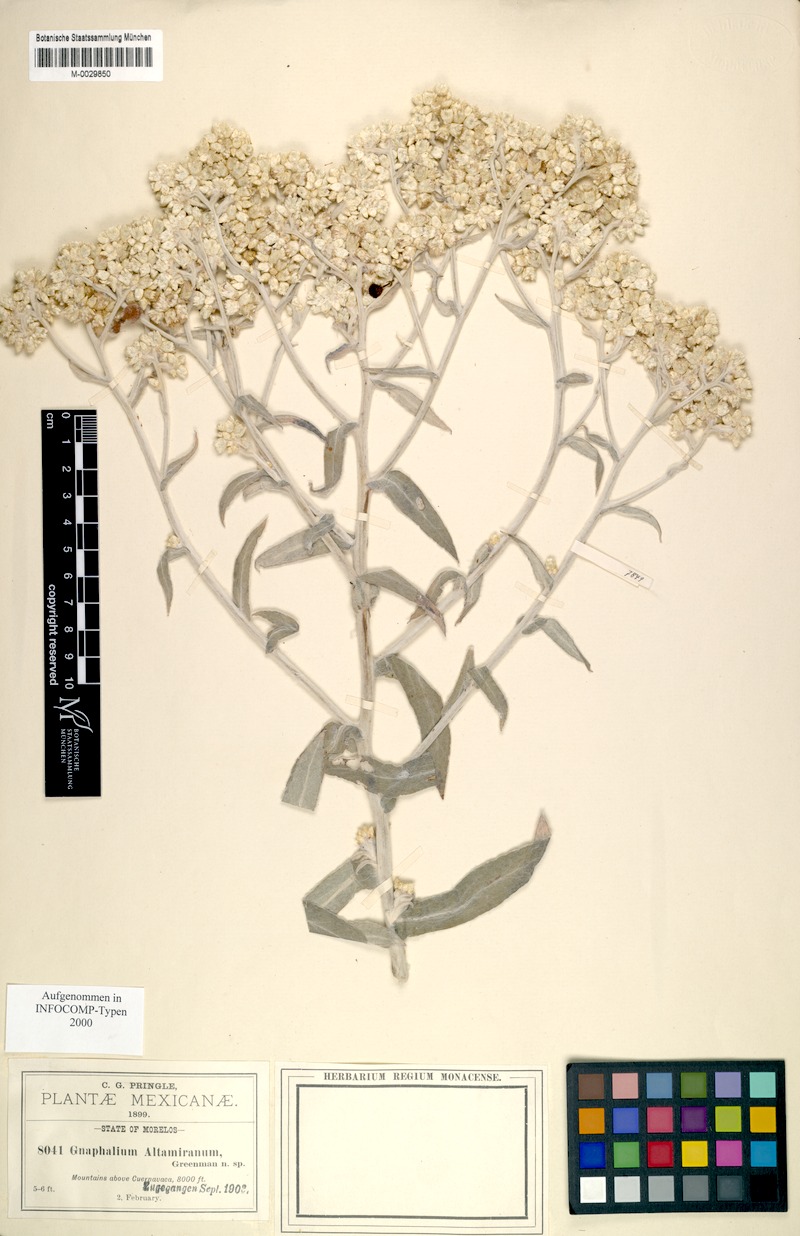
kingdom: Plantae
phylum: Tracheophyta
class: Magnoliopsida
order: Asterales
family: Asteraceae
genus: Pseudognaphalium
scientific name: Pseudognaphalium altamiranum
